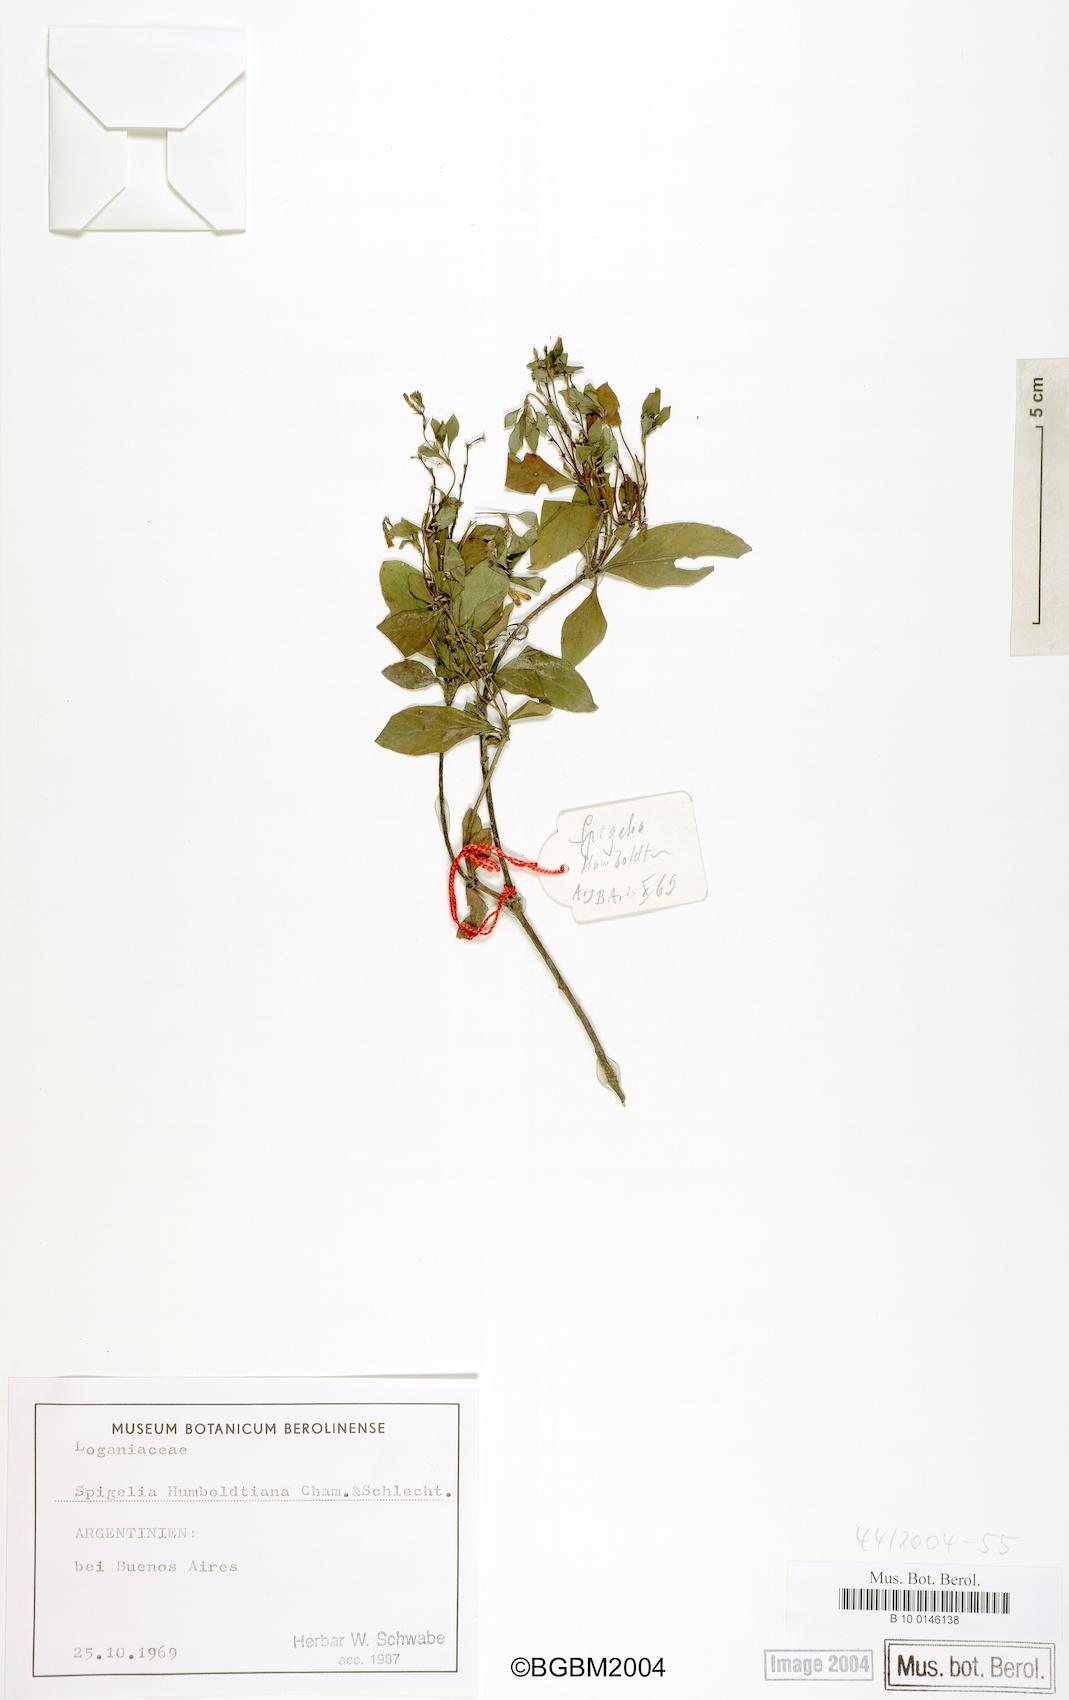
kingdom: Plantae
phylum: Tracheophyta
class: Magnoliopsida
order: Gentianales
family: Loganiaceae
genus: Spigelia
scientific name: Spigelia humboldtiana
